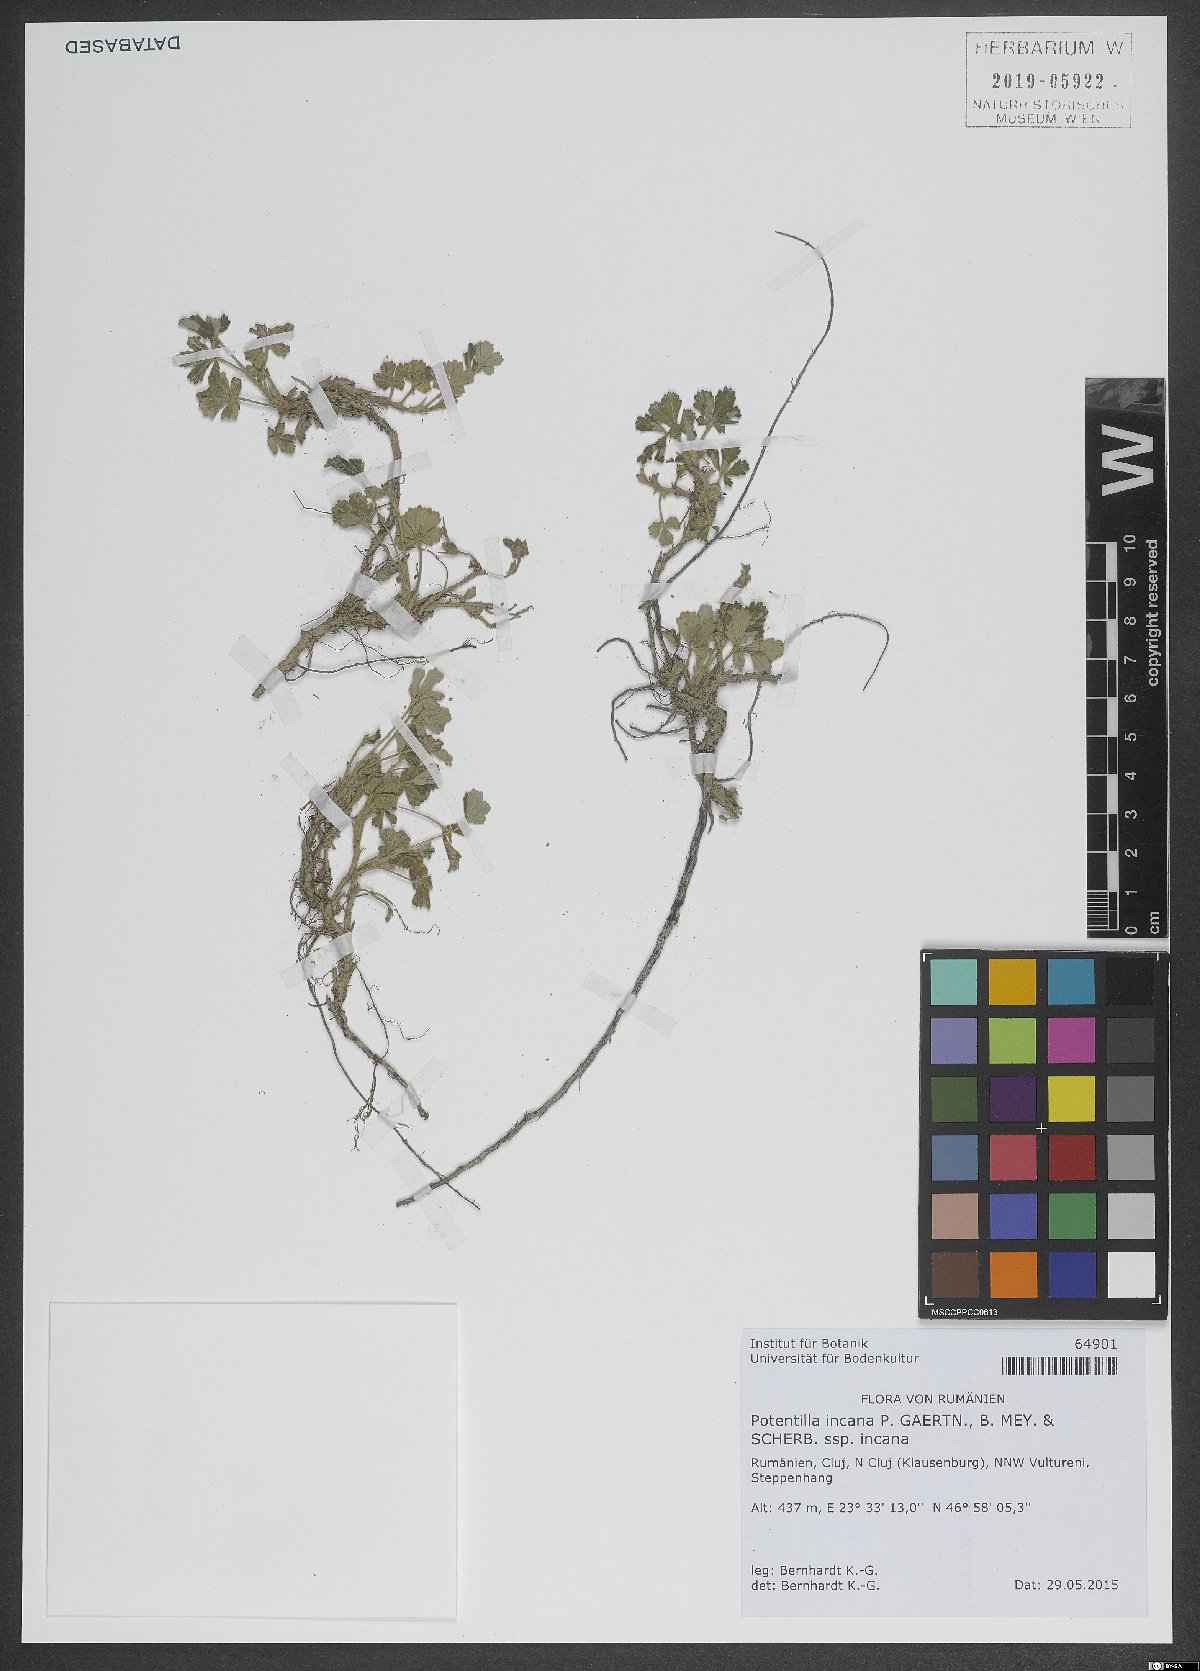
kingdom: Plantae
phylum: Tracheophyta
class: Magnoliopsida
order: Rosales
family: Rosaceae
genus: Potentilla
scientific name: Potentilla cinerea
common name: Ashy cinquefoil
